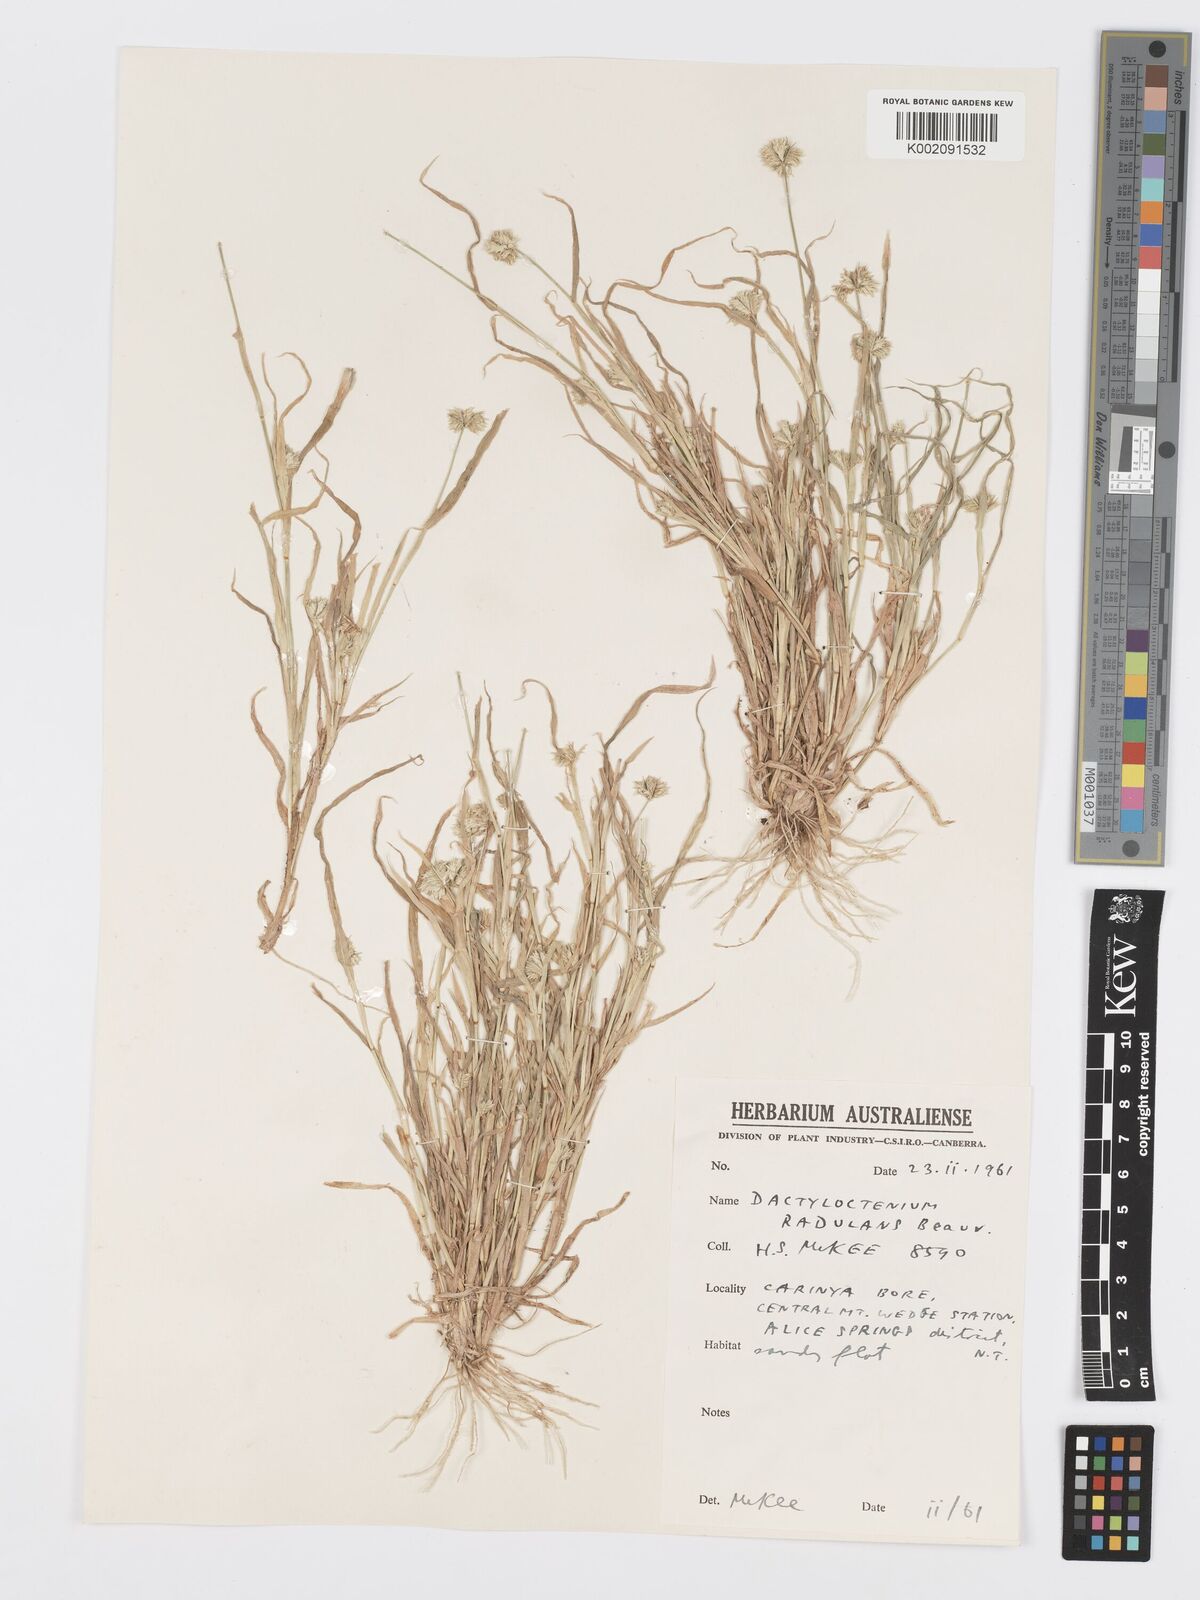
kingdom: Plantae
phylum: Tracheophyta
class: Liliopsida
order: Poales
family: Poaceae
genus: Dactyloctenium
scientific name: Dactyloctenium radulans
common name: Button-grass
